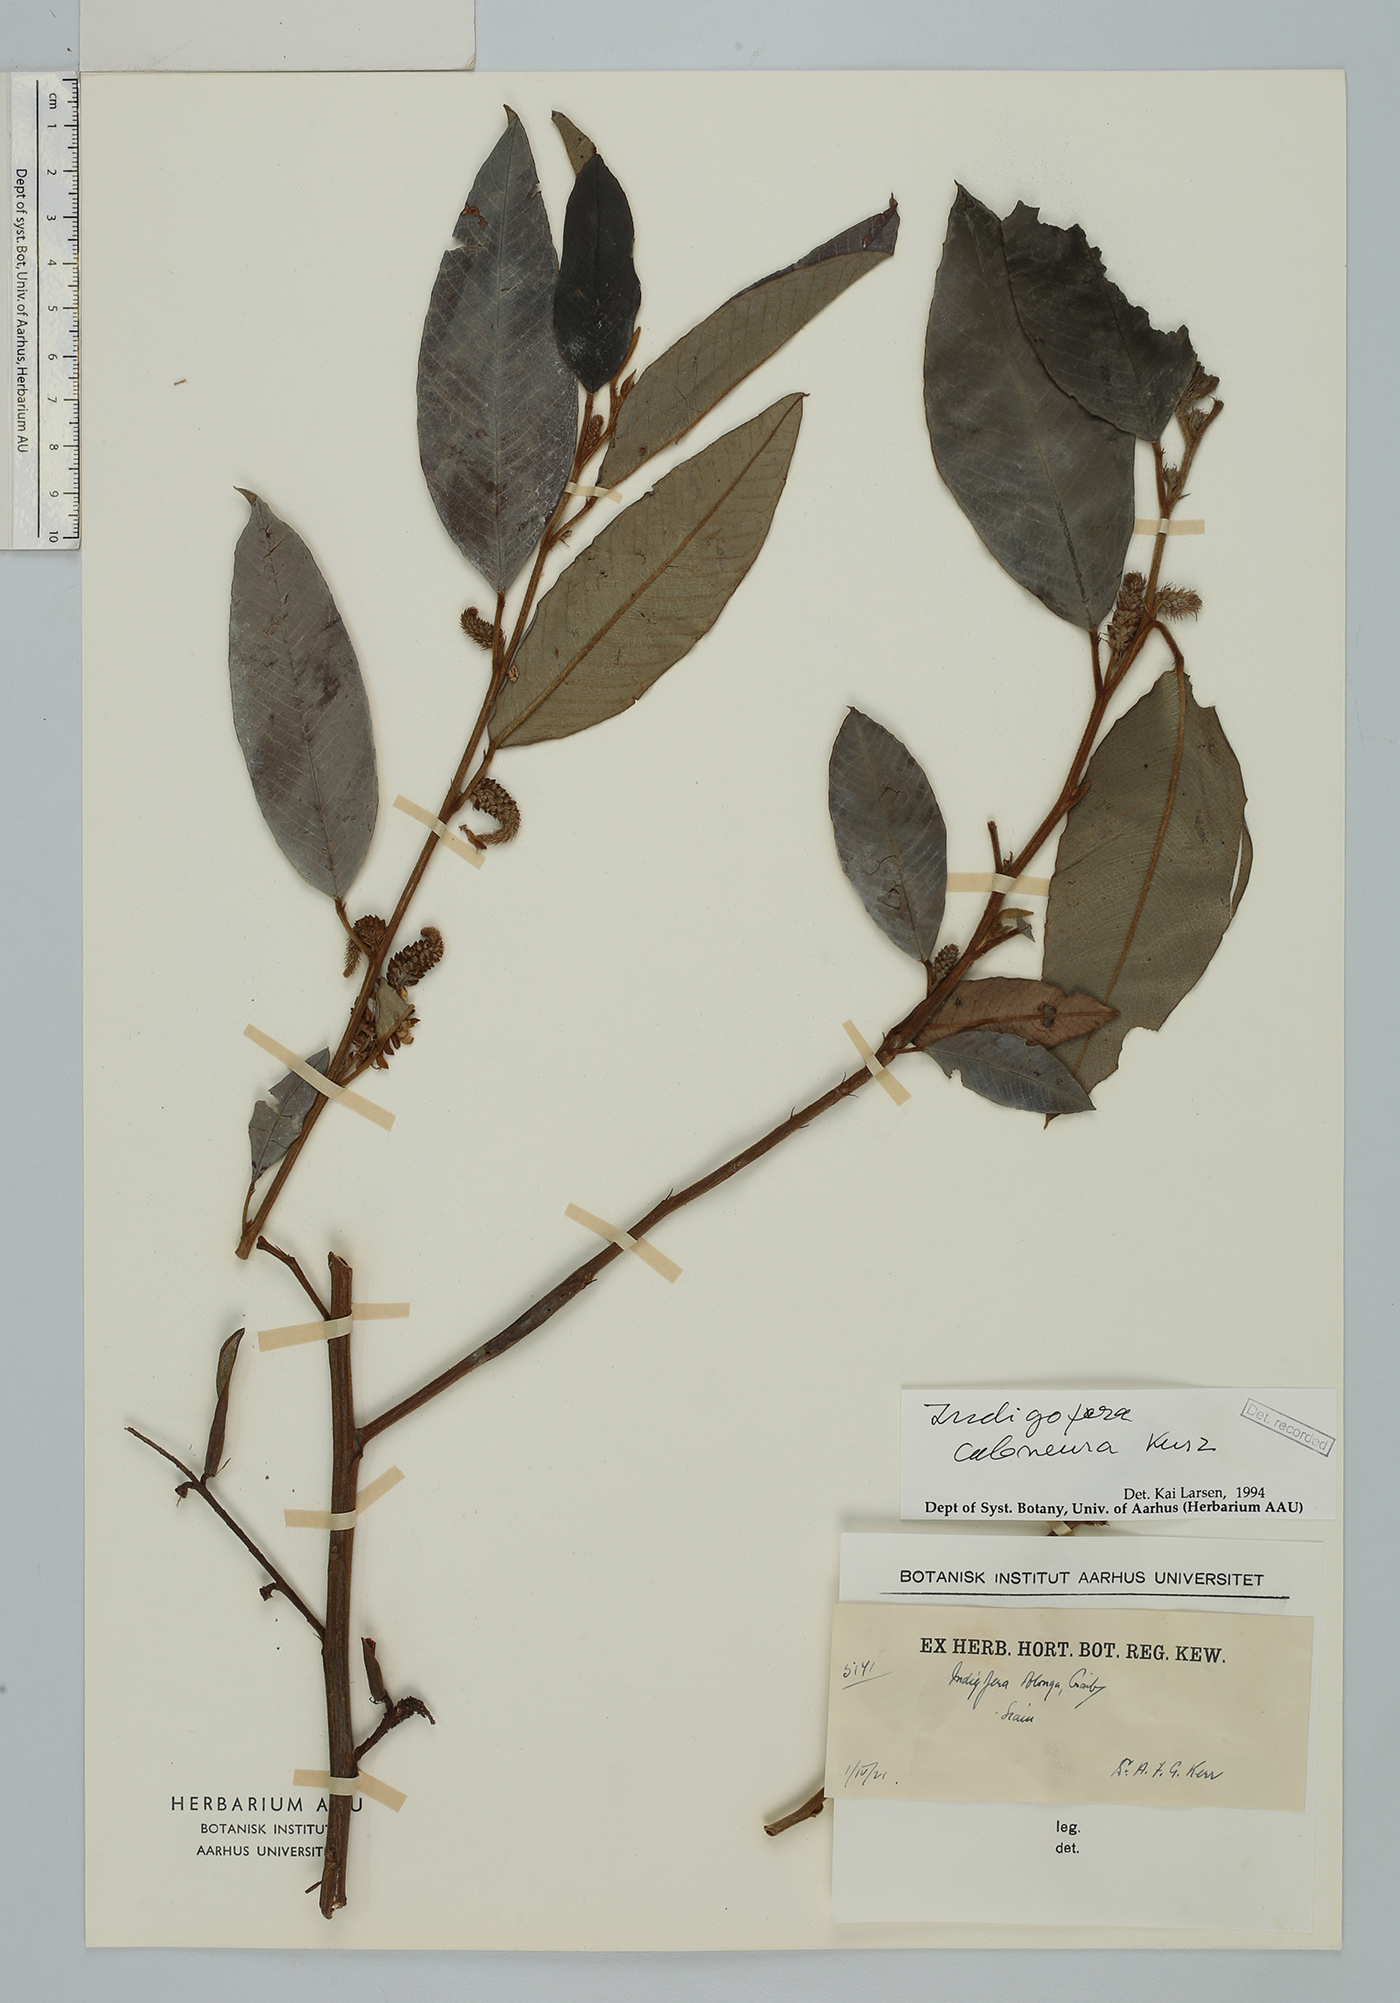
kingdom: Plantae
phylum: Tracheophyta
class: Magnoliopsida
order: Fabales
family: Fabaceae
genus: Indigofera
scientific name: Indigofera caloneura
